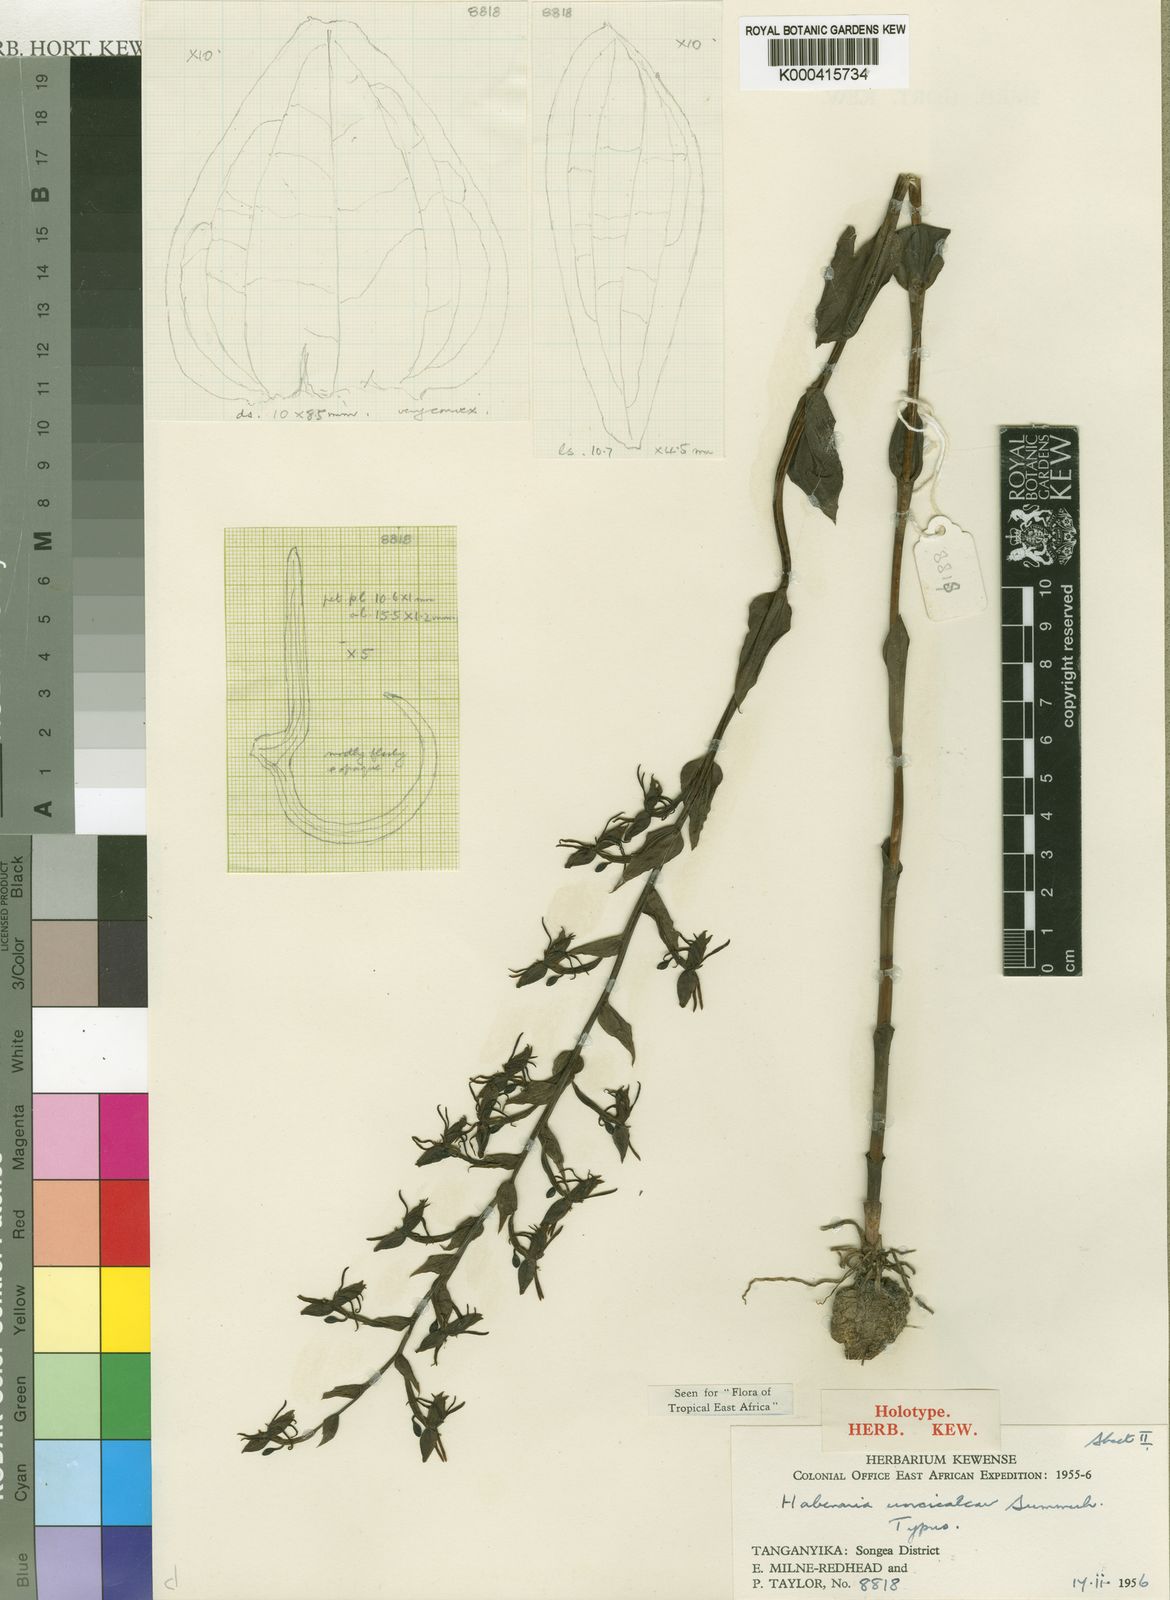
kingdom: Plantae
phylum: Tracheophyta
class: Liliopsida
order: Asparagales
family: Orchidaceae
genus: Habenaria
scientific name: Habenaria uncicalcar
